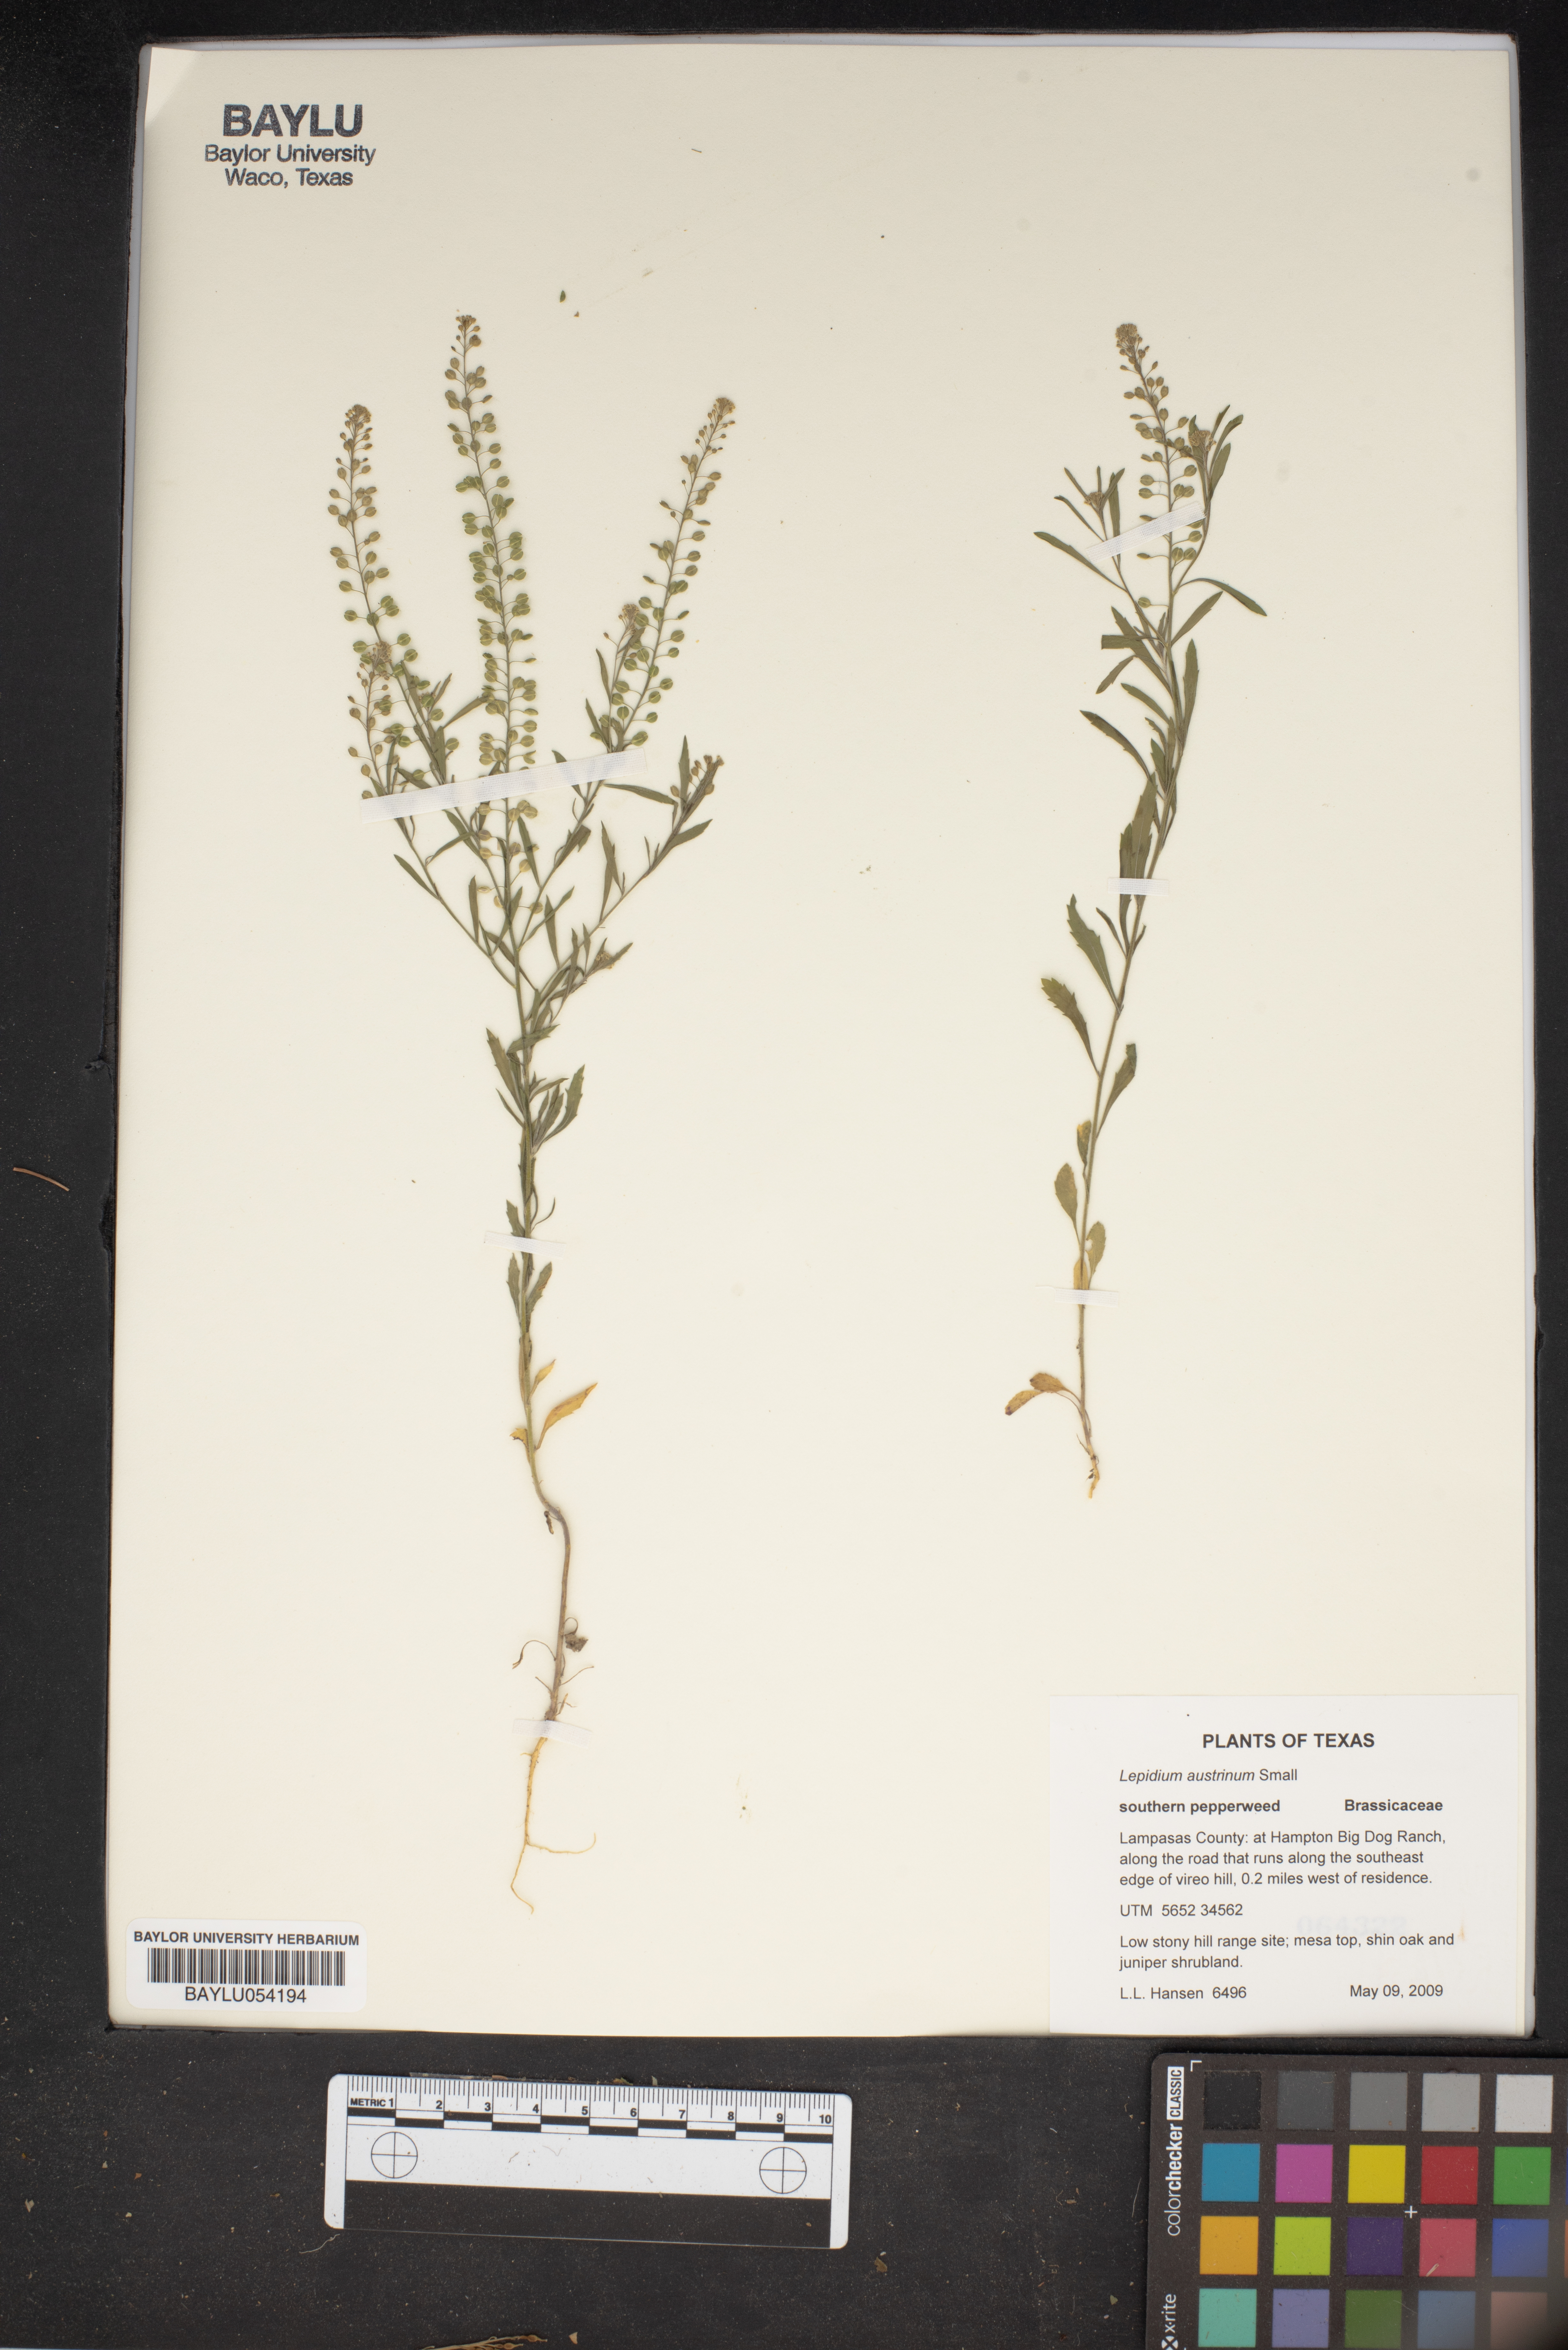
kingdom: Plantae
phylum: Tracheophyta
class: Magnoliopsida
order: Brassicales
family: Brassicaceae
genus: Lepidium
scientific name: Lepidium austrinum
